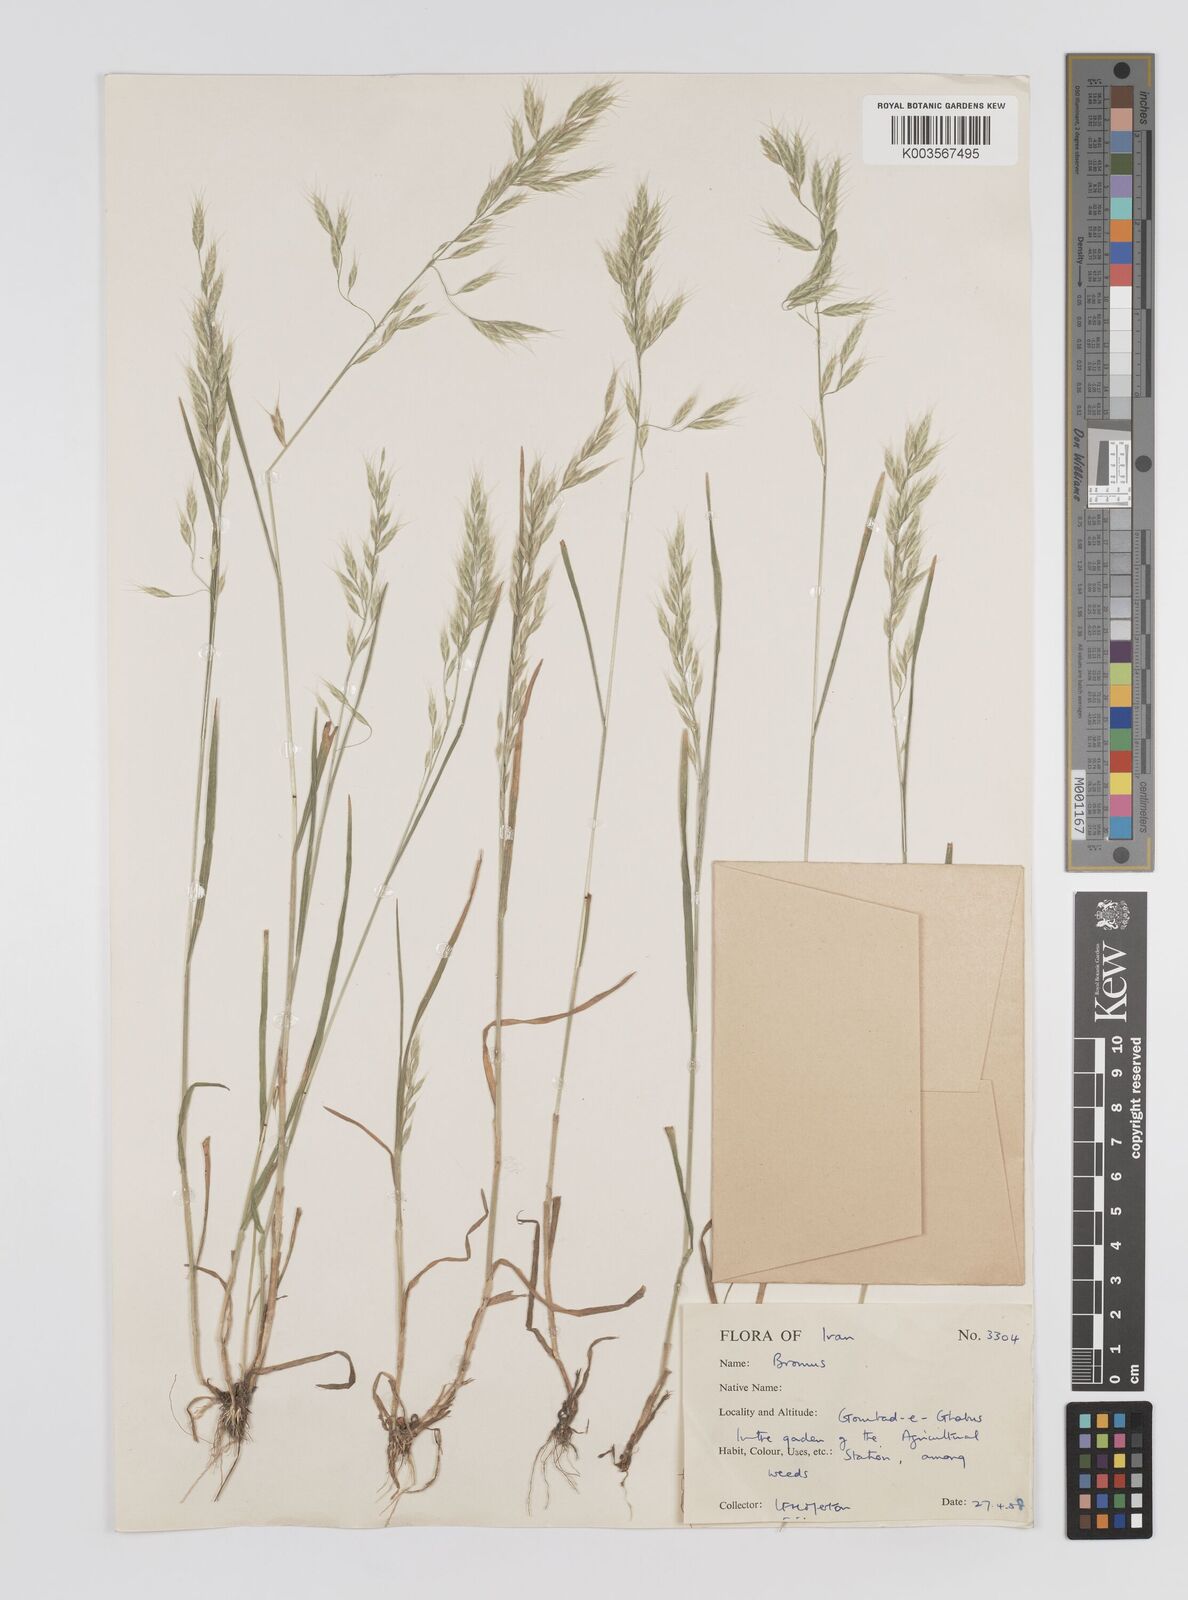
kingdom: Plantae
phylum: Tracheophyta
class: Liliopsida
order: Poales
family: Poaceae
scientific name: Poaceae
